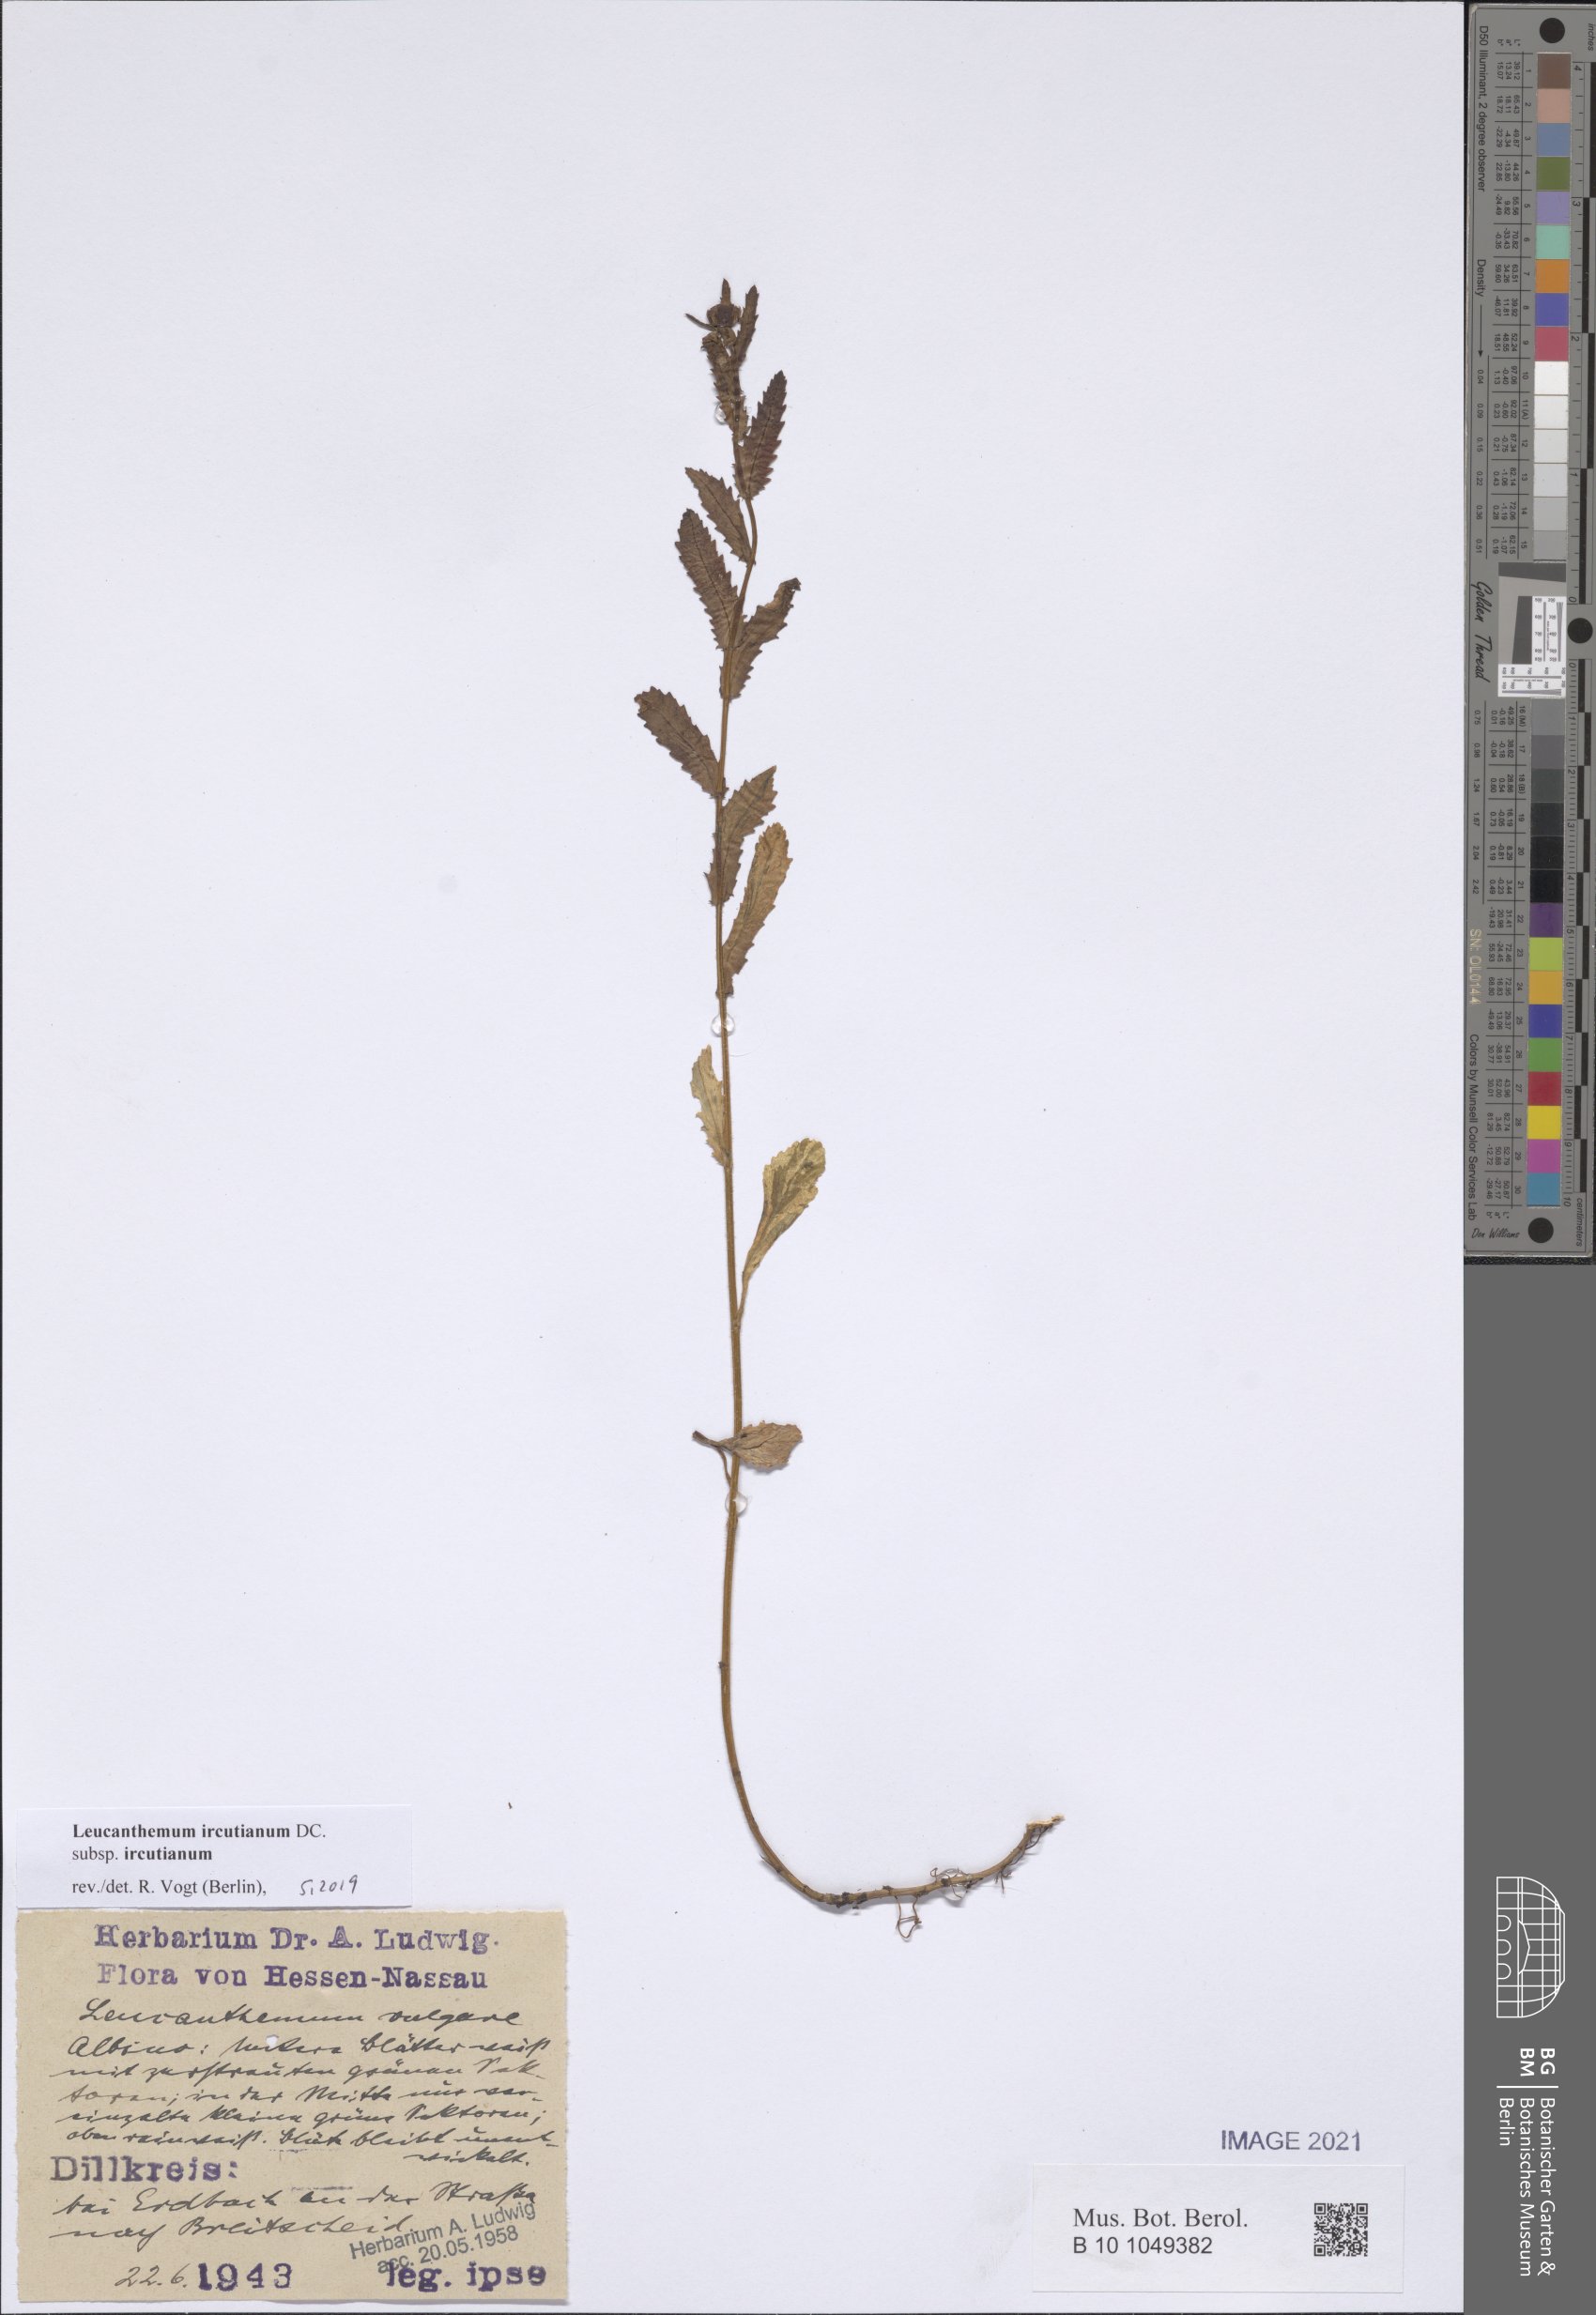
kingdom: Plantae
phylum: Tracheophyta
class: Magnoliopsida
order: Asterales
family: Asteraceae
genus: Leucanthemum
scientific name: Leucanthemum ircutianum
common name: Daisy
